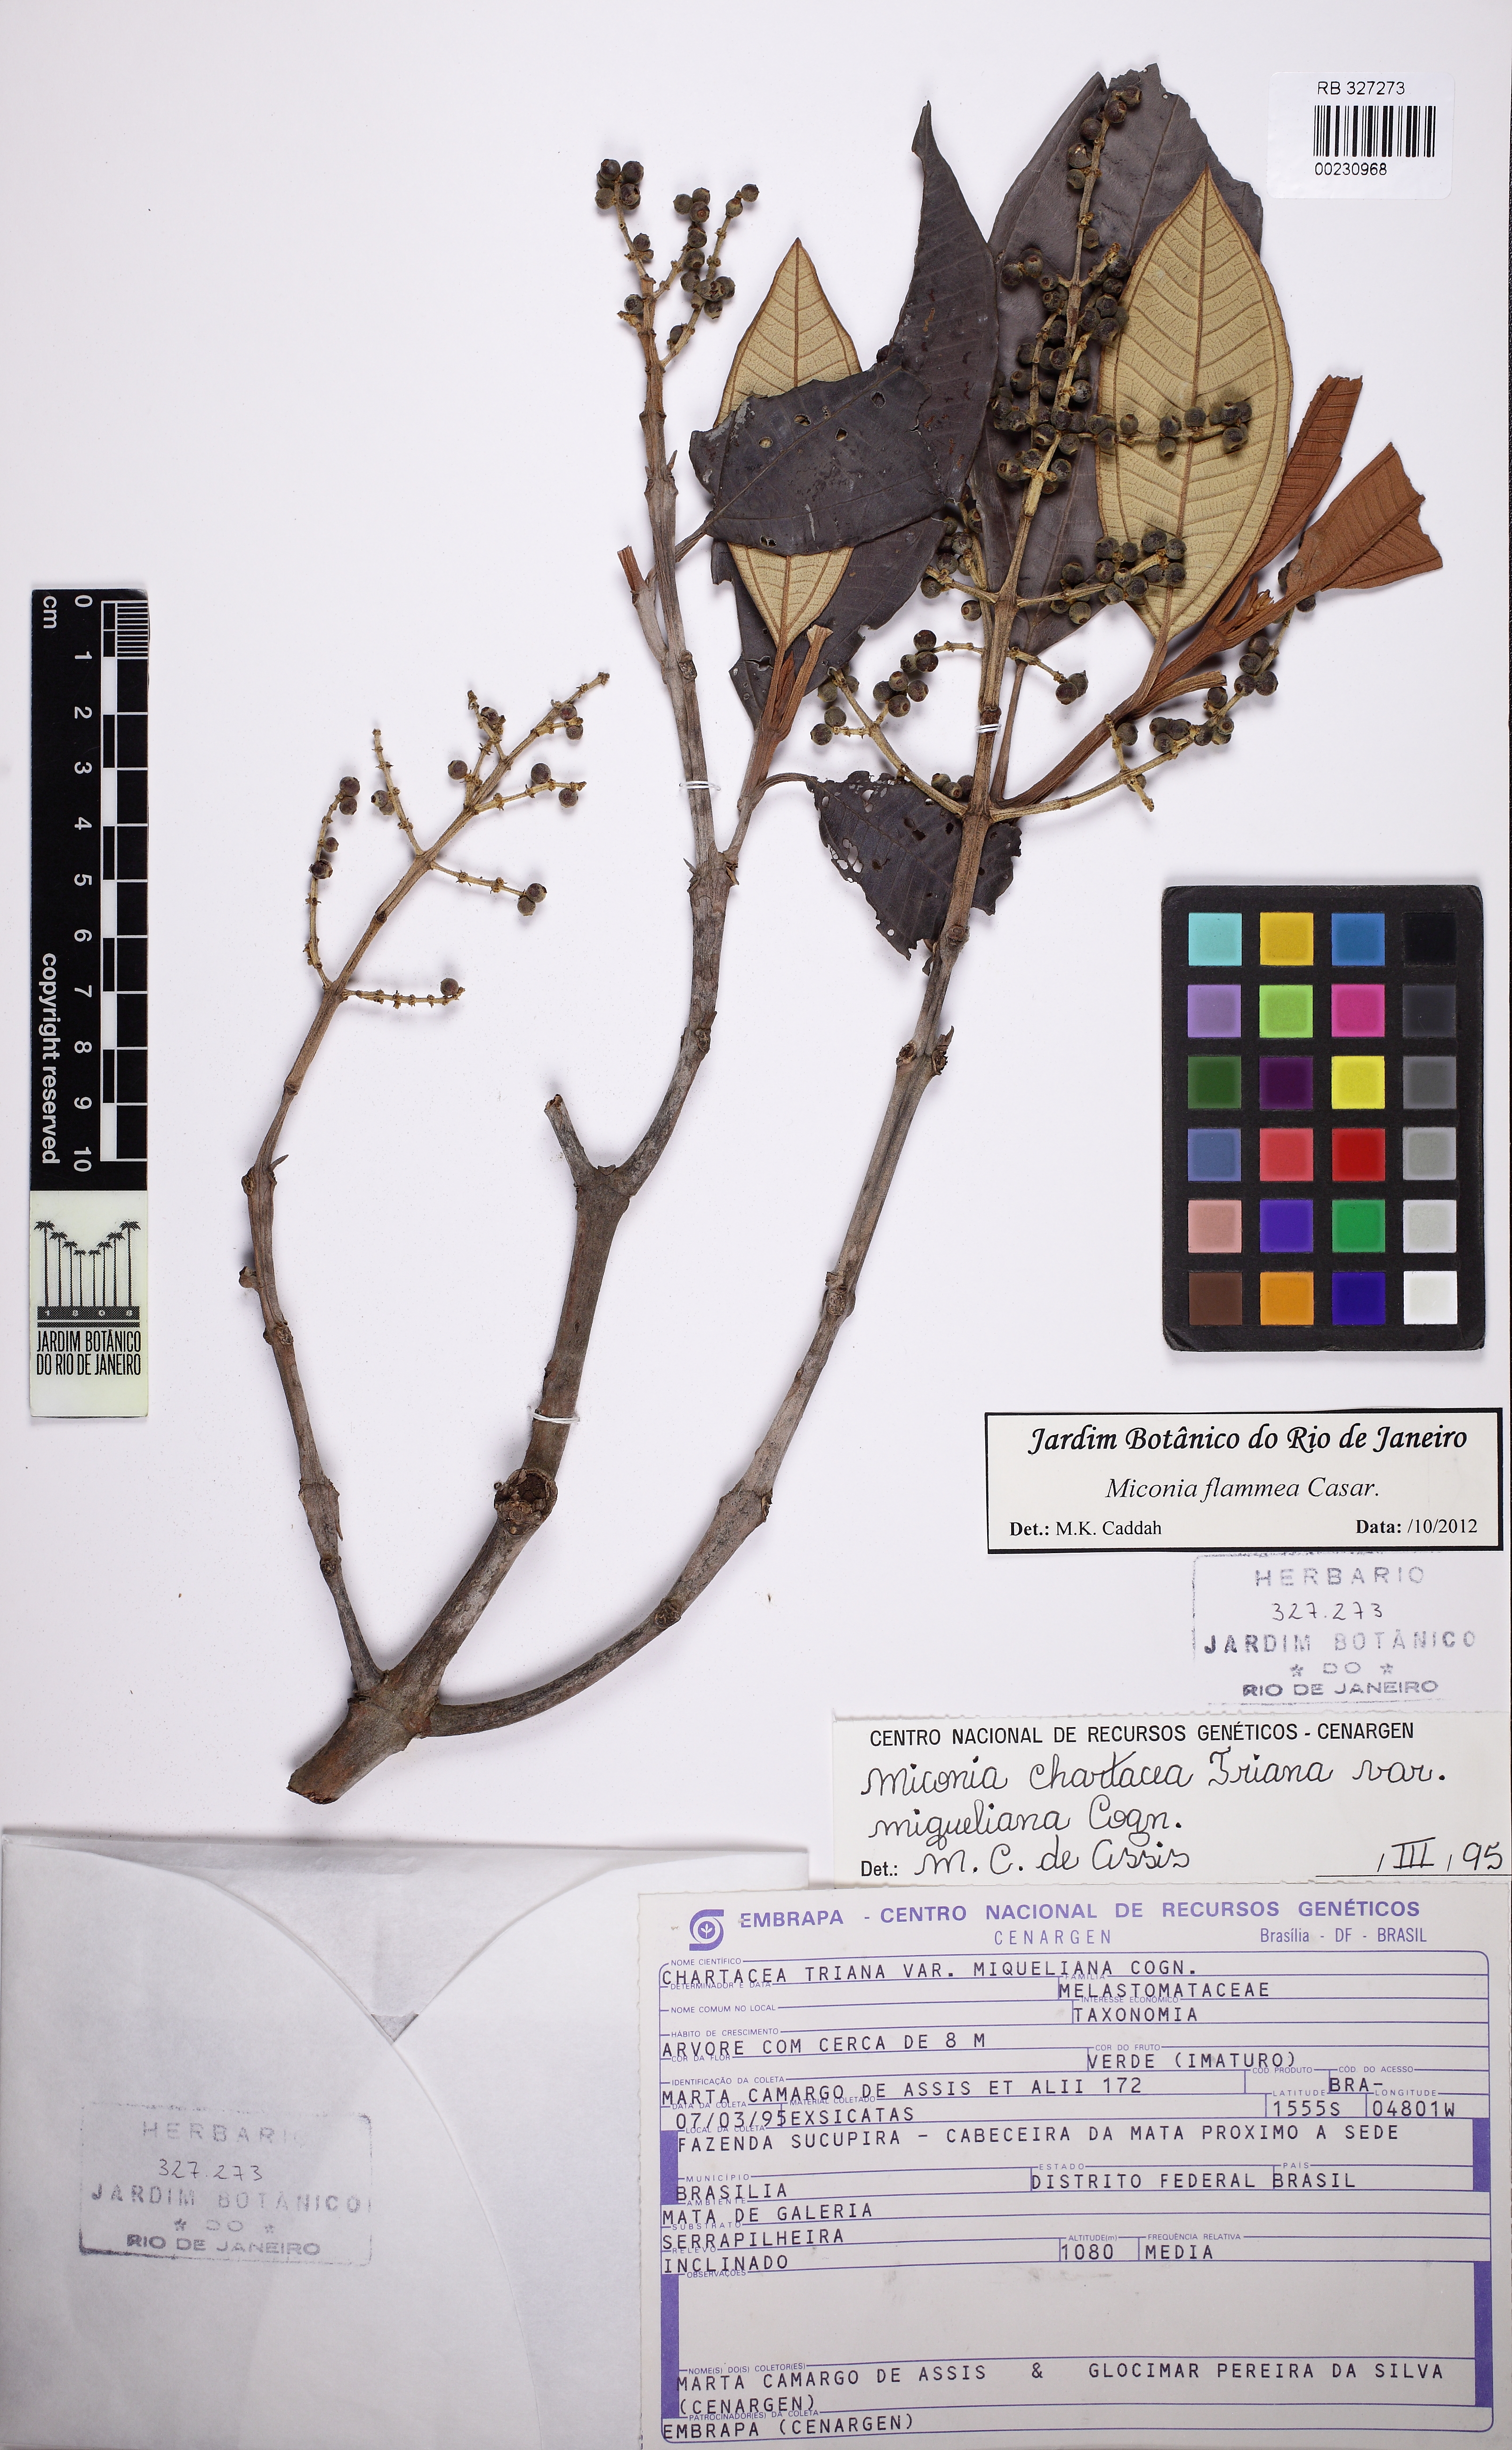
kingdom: Plantae
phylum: Tracheophyta
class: Magnoliopsida
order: Myrtales
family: Melastomataceae
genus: Miconia
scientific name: Miconia flammea
